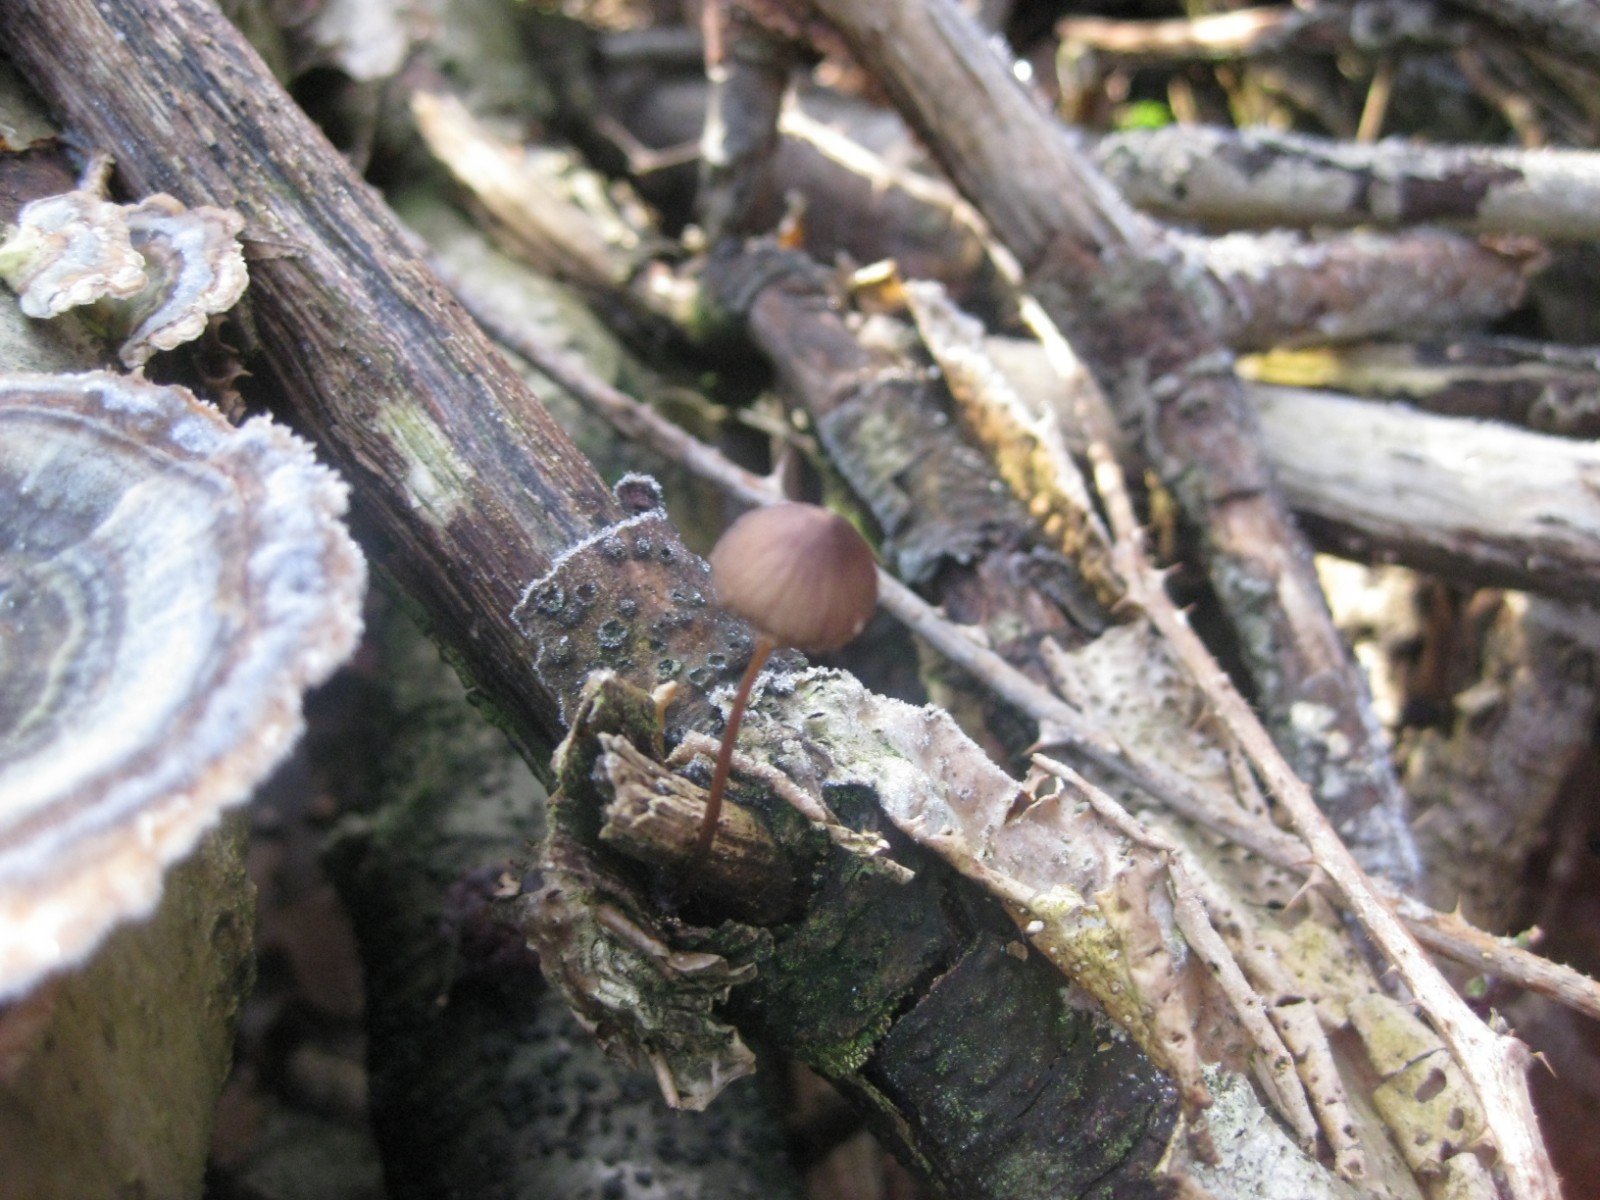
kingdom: Fungi
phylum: Basidiomycota
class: Agaricomycetes
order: Agaricales
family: Mycenaceae
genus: Mycena
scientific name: Mycena
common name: huesvamp
